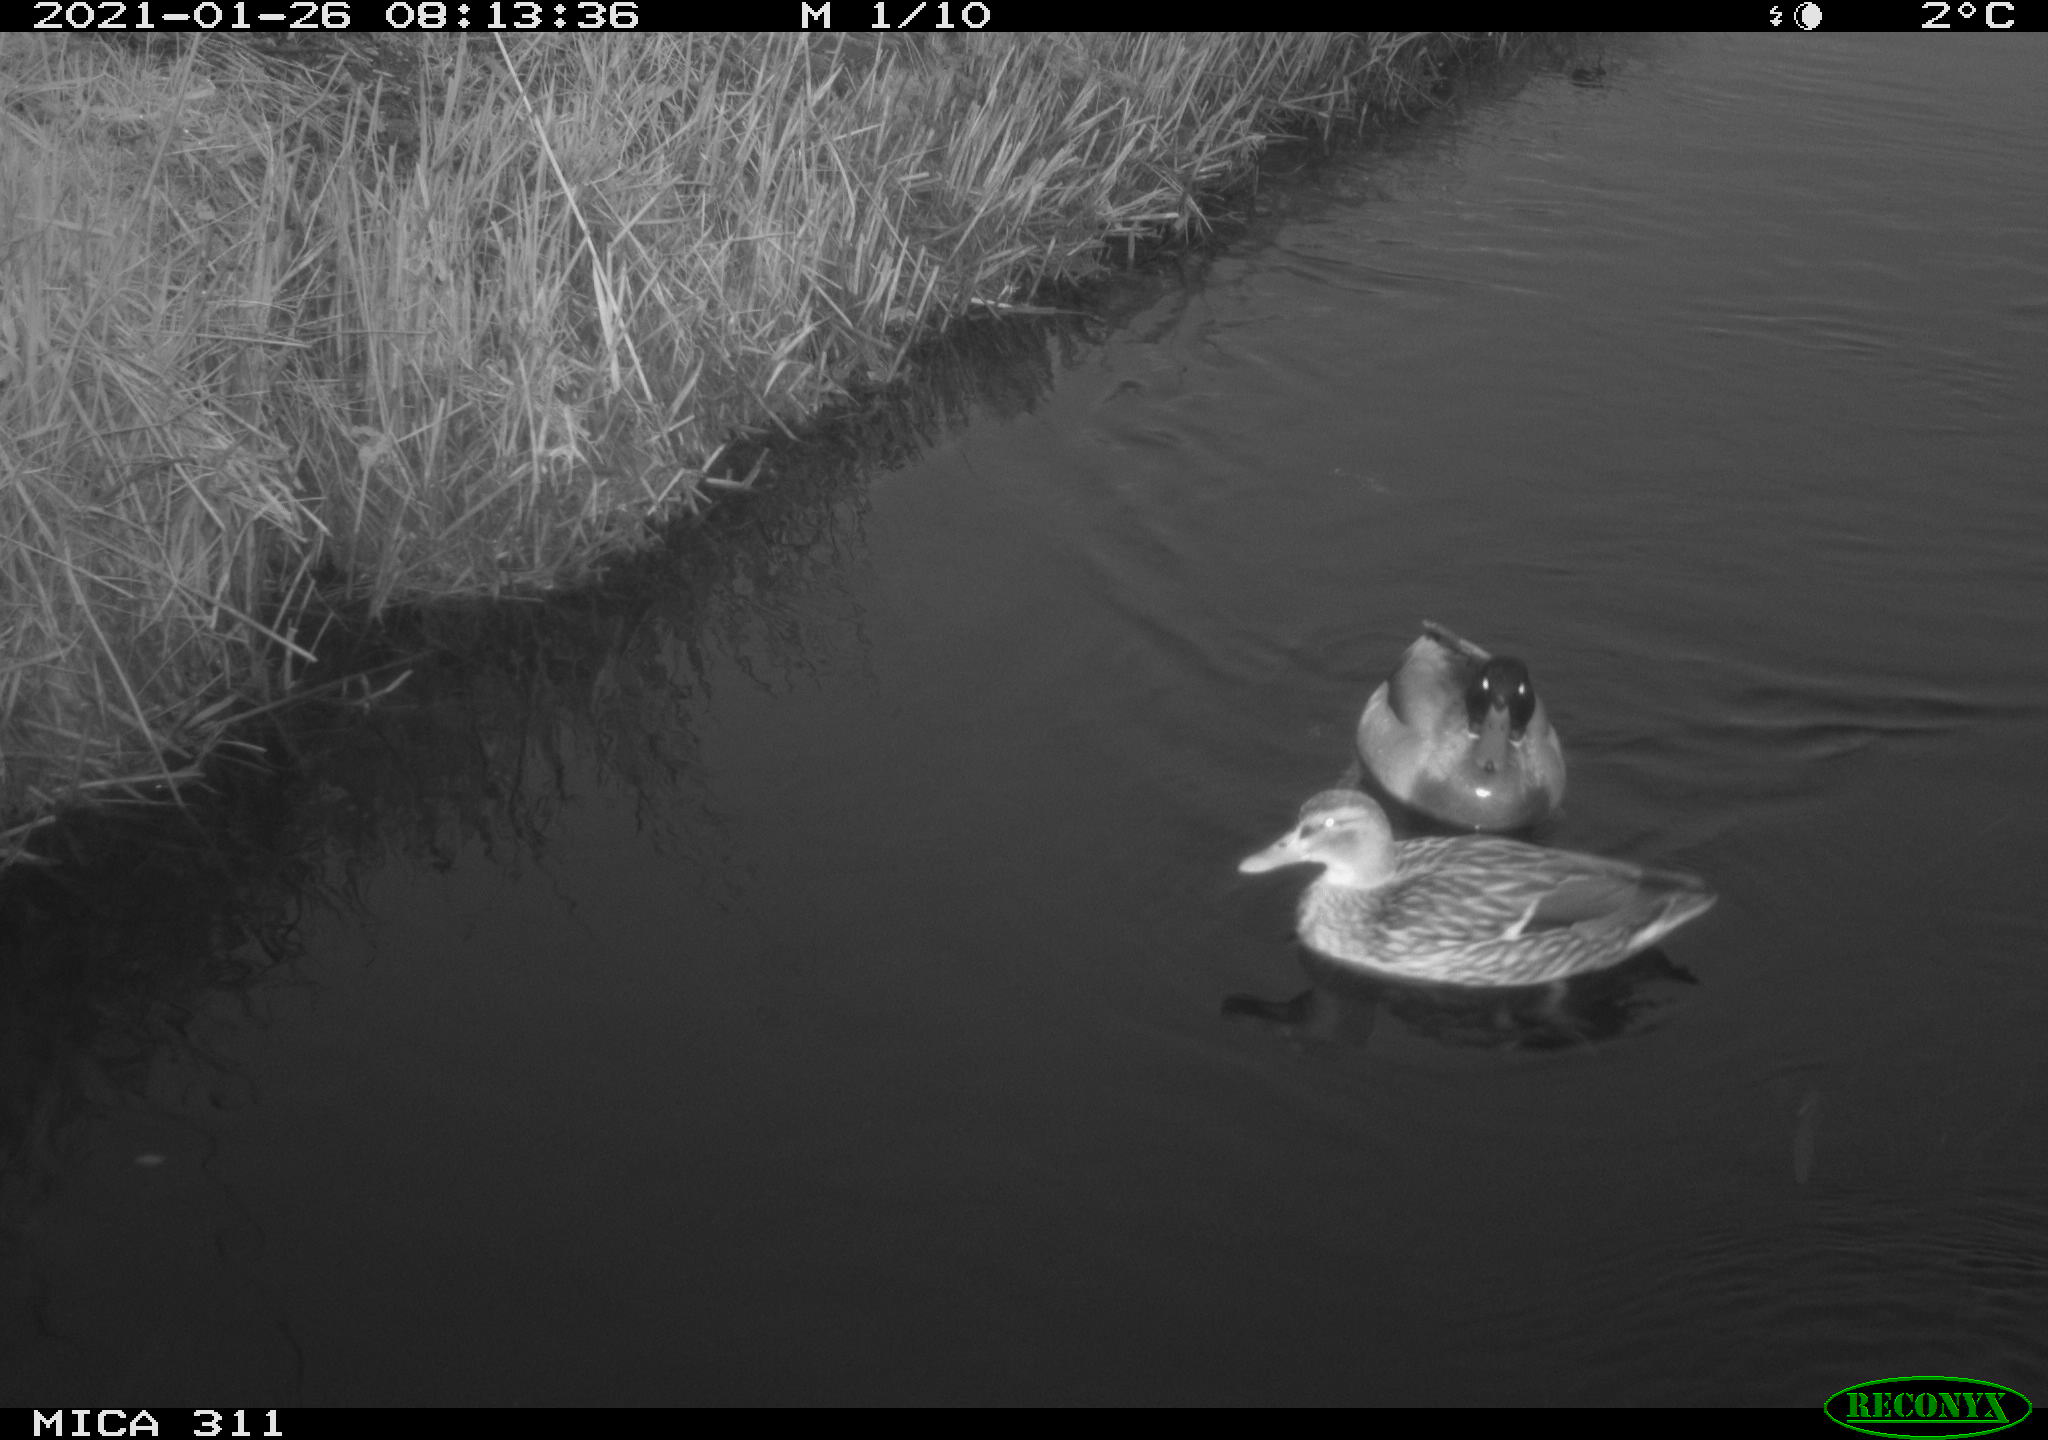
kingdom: Animalia
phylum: Chordata
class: Aves
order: Anseriformes
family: Anatidae
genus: Anas
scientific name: Anas
